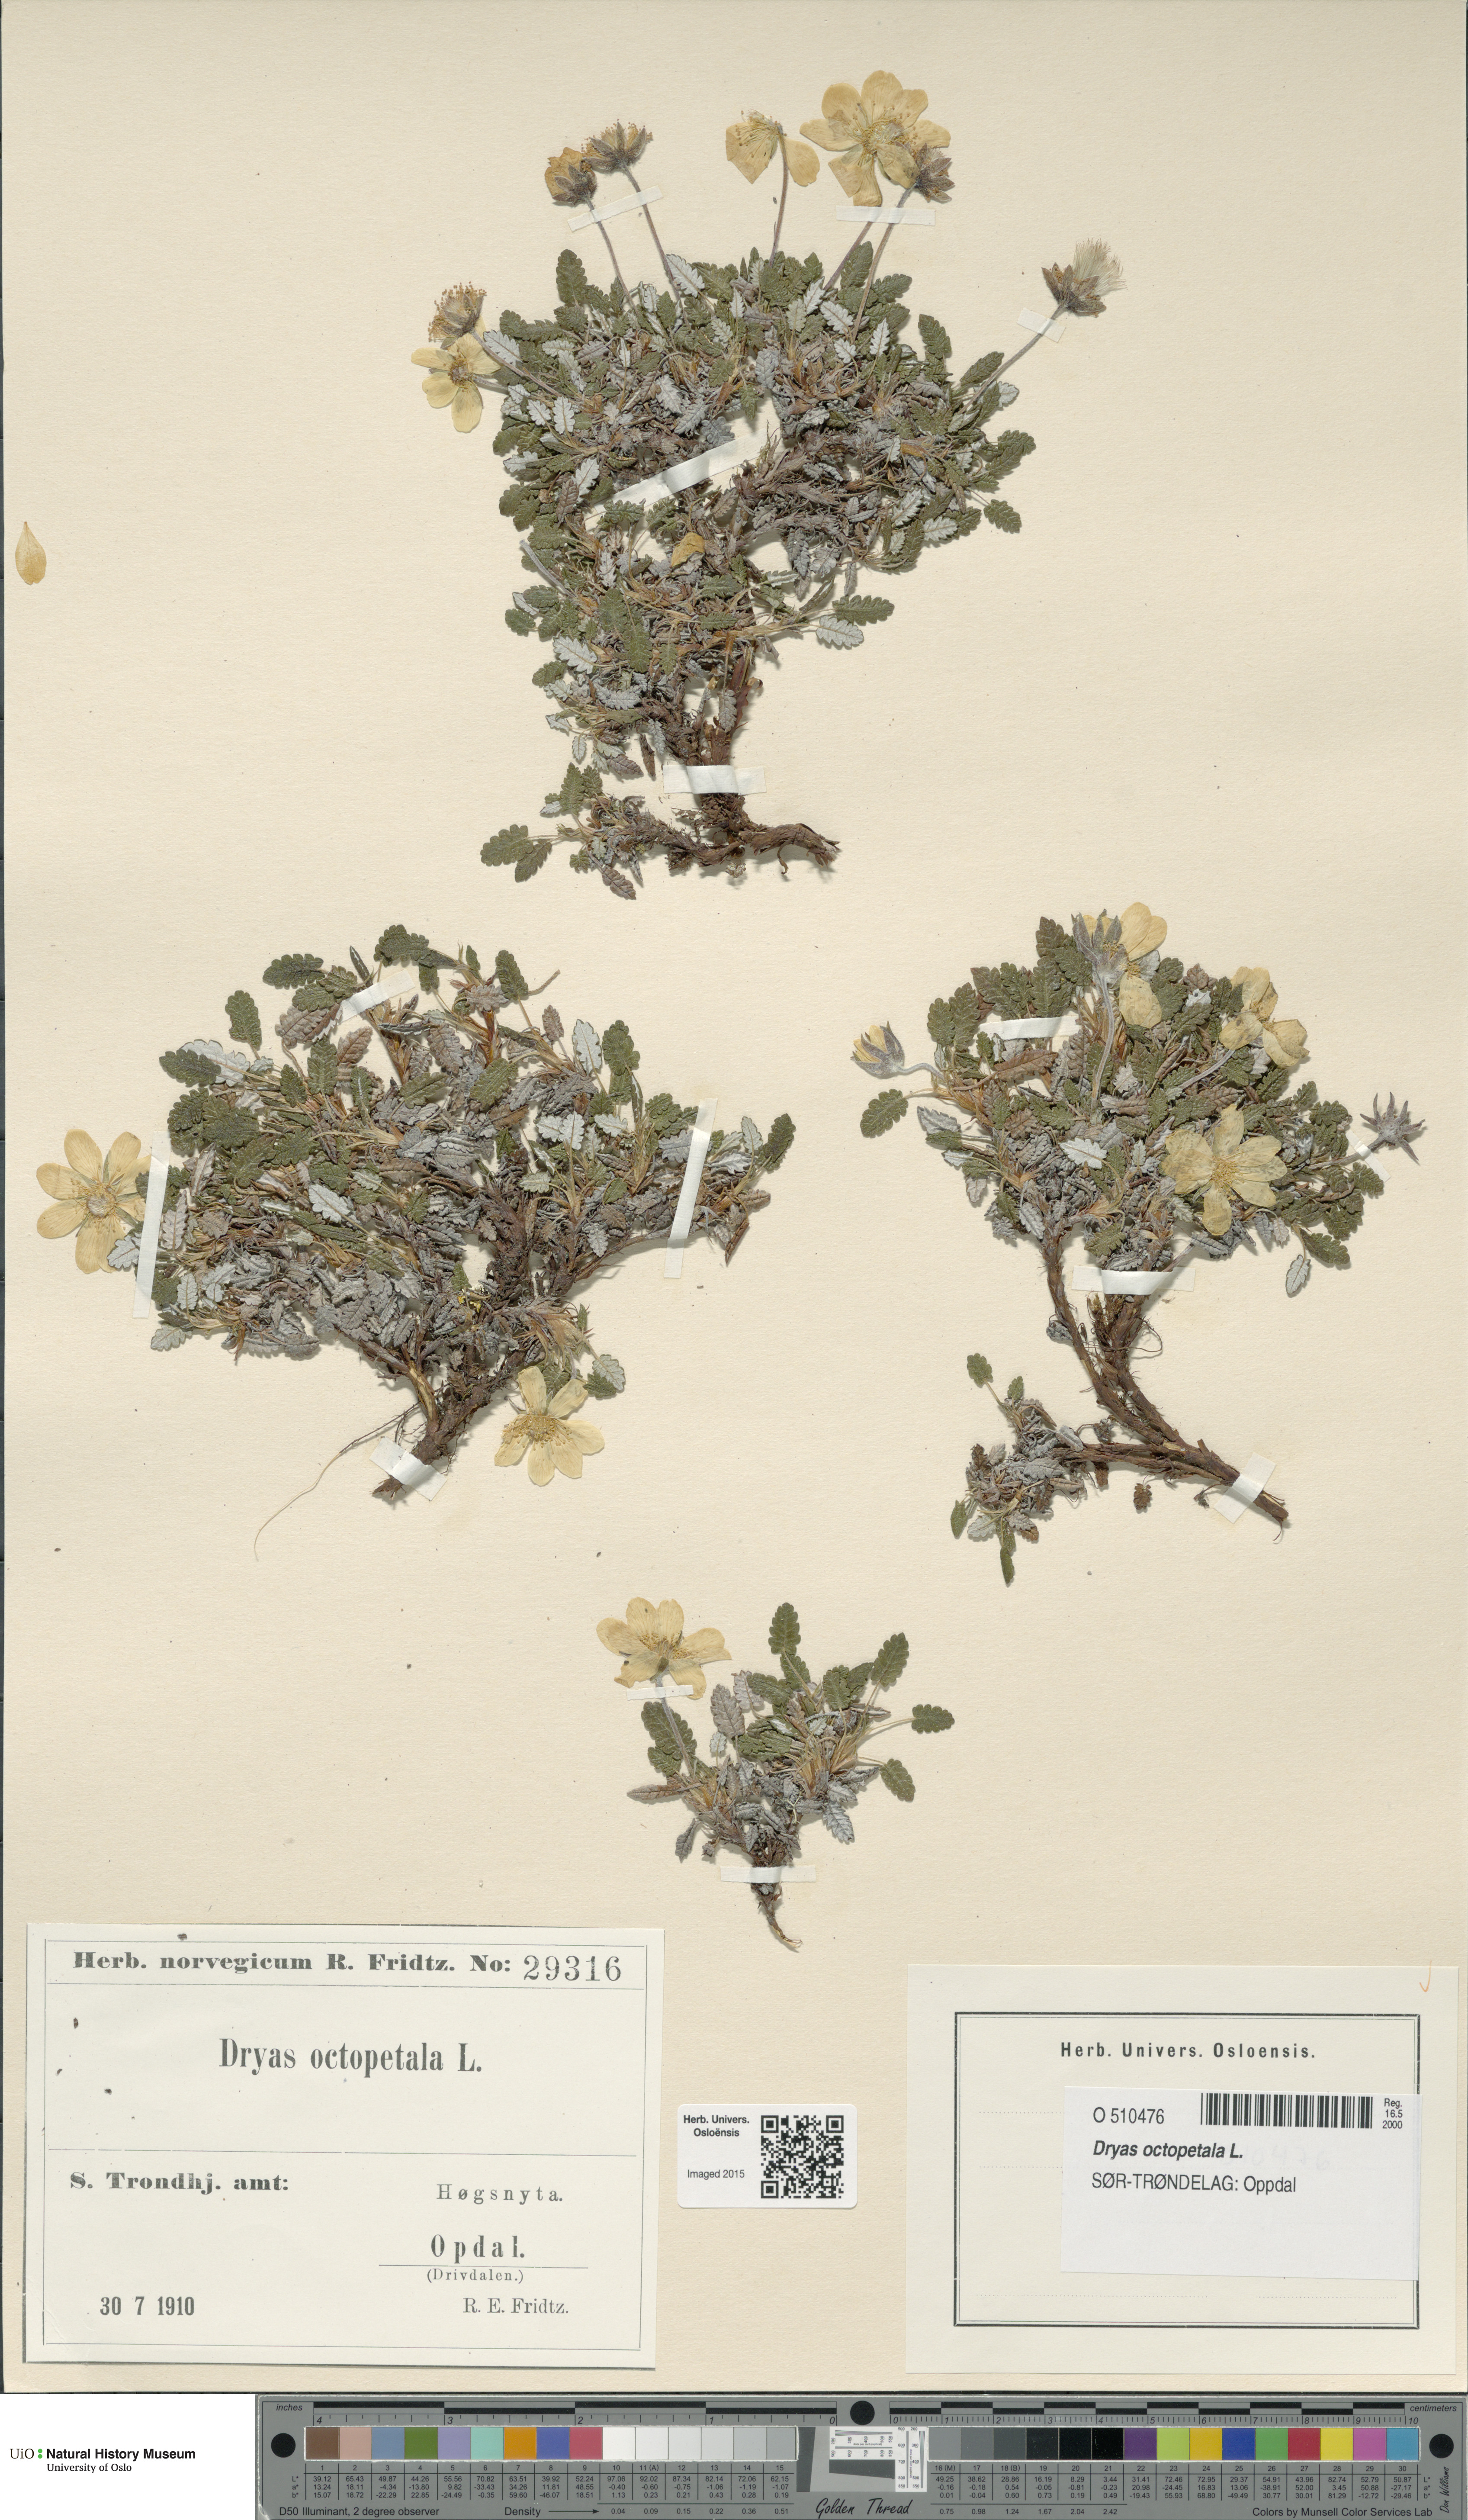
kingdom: Plantae
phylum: Tracheophyta
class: Magnoliopsida
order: Rosales
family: Rosaceae
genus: Dryas
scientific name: Dryas octopetala
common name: Eight-petal mountain-avens
